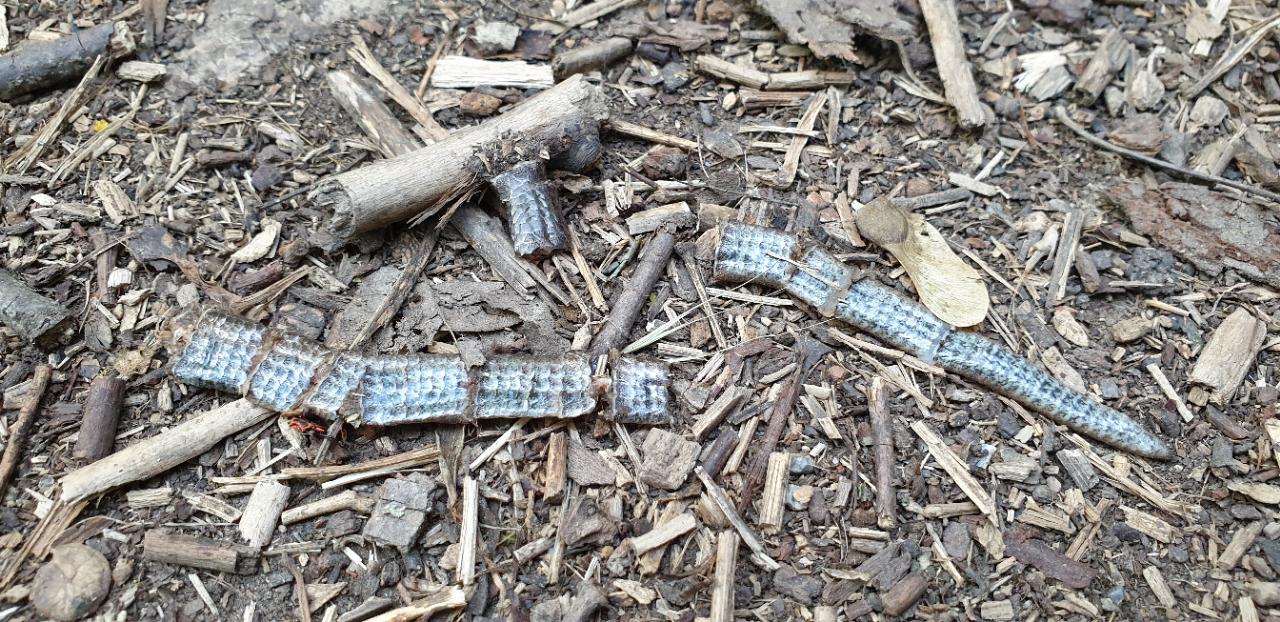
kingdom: Animalia
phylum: Chordata
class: Squamata
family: Anguidae
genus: Anguis
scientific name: Anguis fragilis
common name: Slow worm
